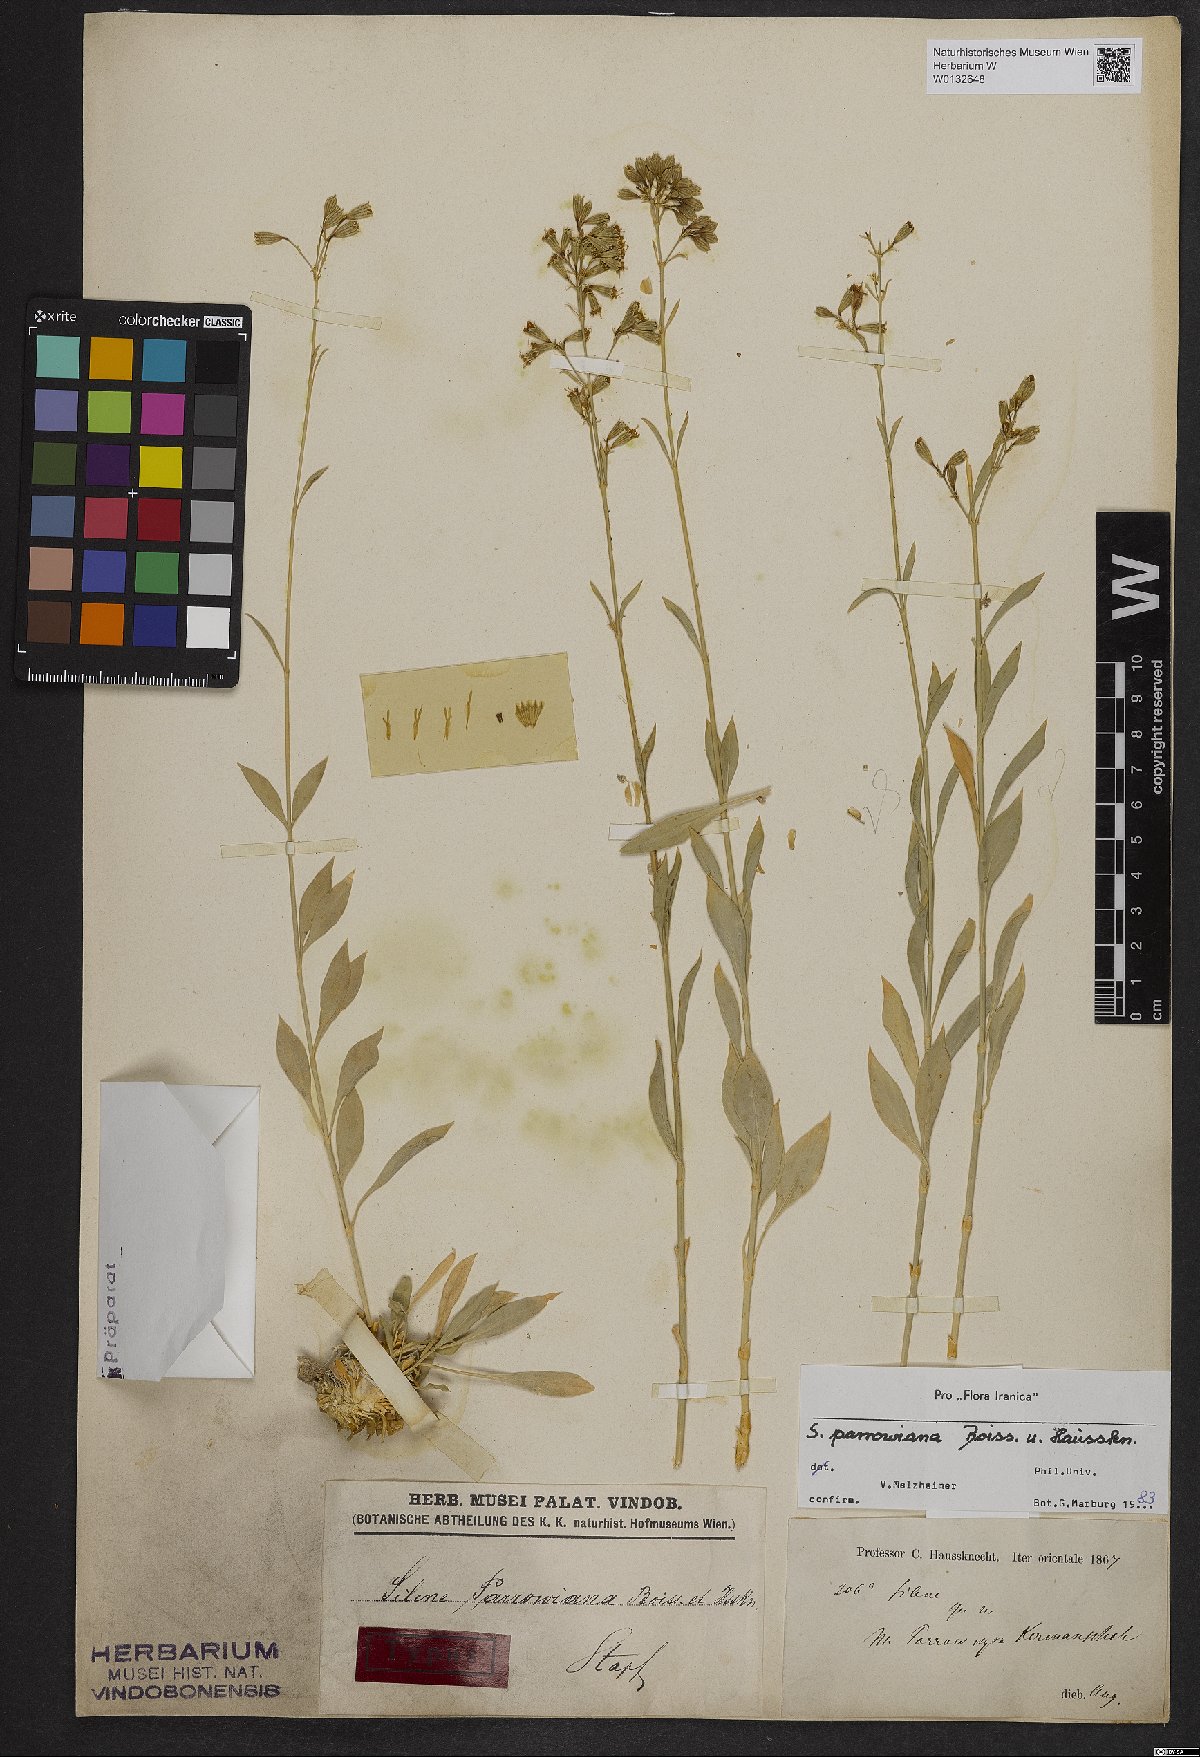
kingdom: Plantae
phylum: Tracheophyta
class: Magnoliopsida
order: Caryophyllales
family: Caryophyllaceae
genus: Silene
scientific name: Silene parrowiana
